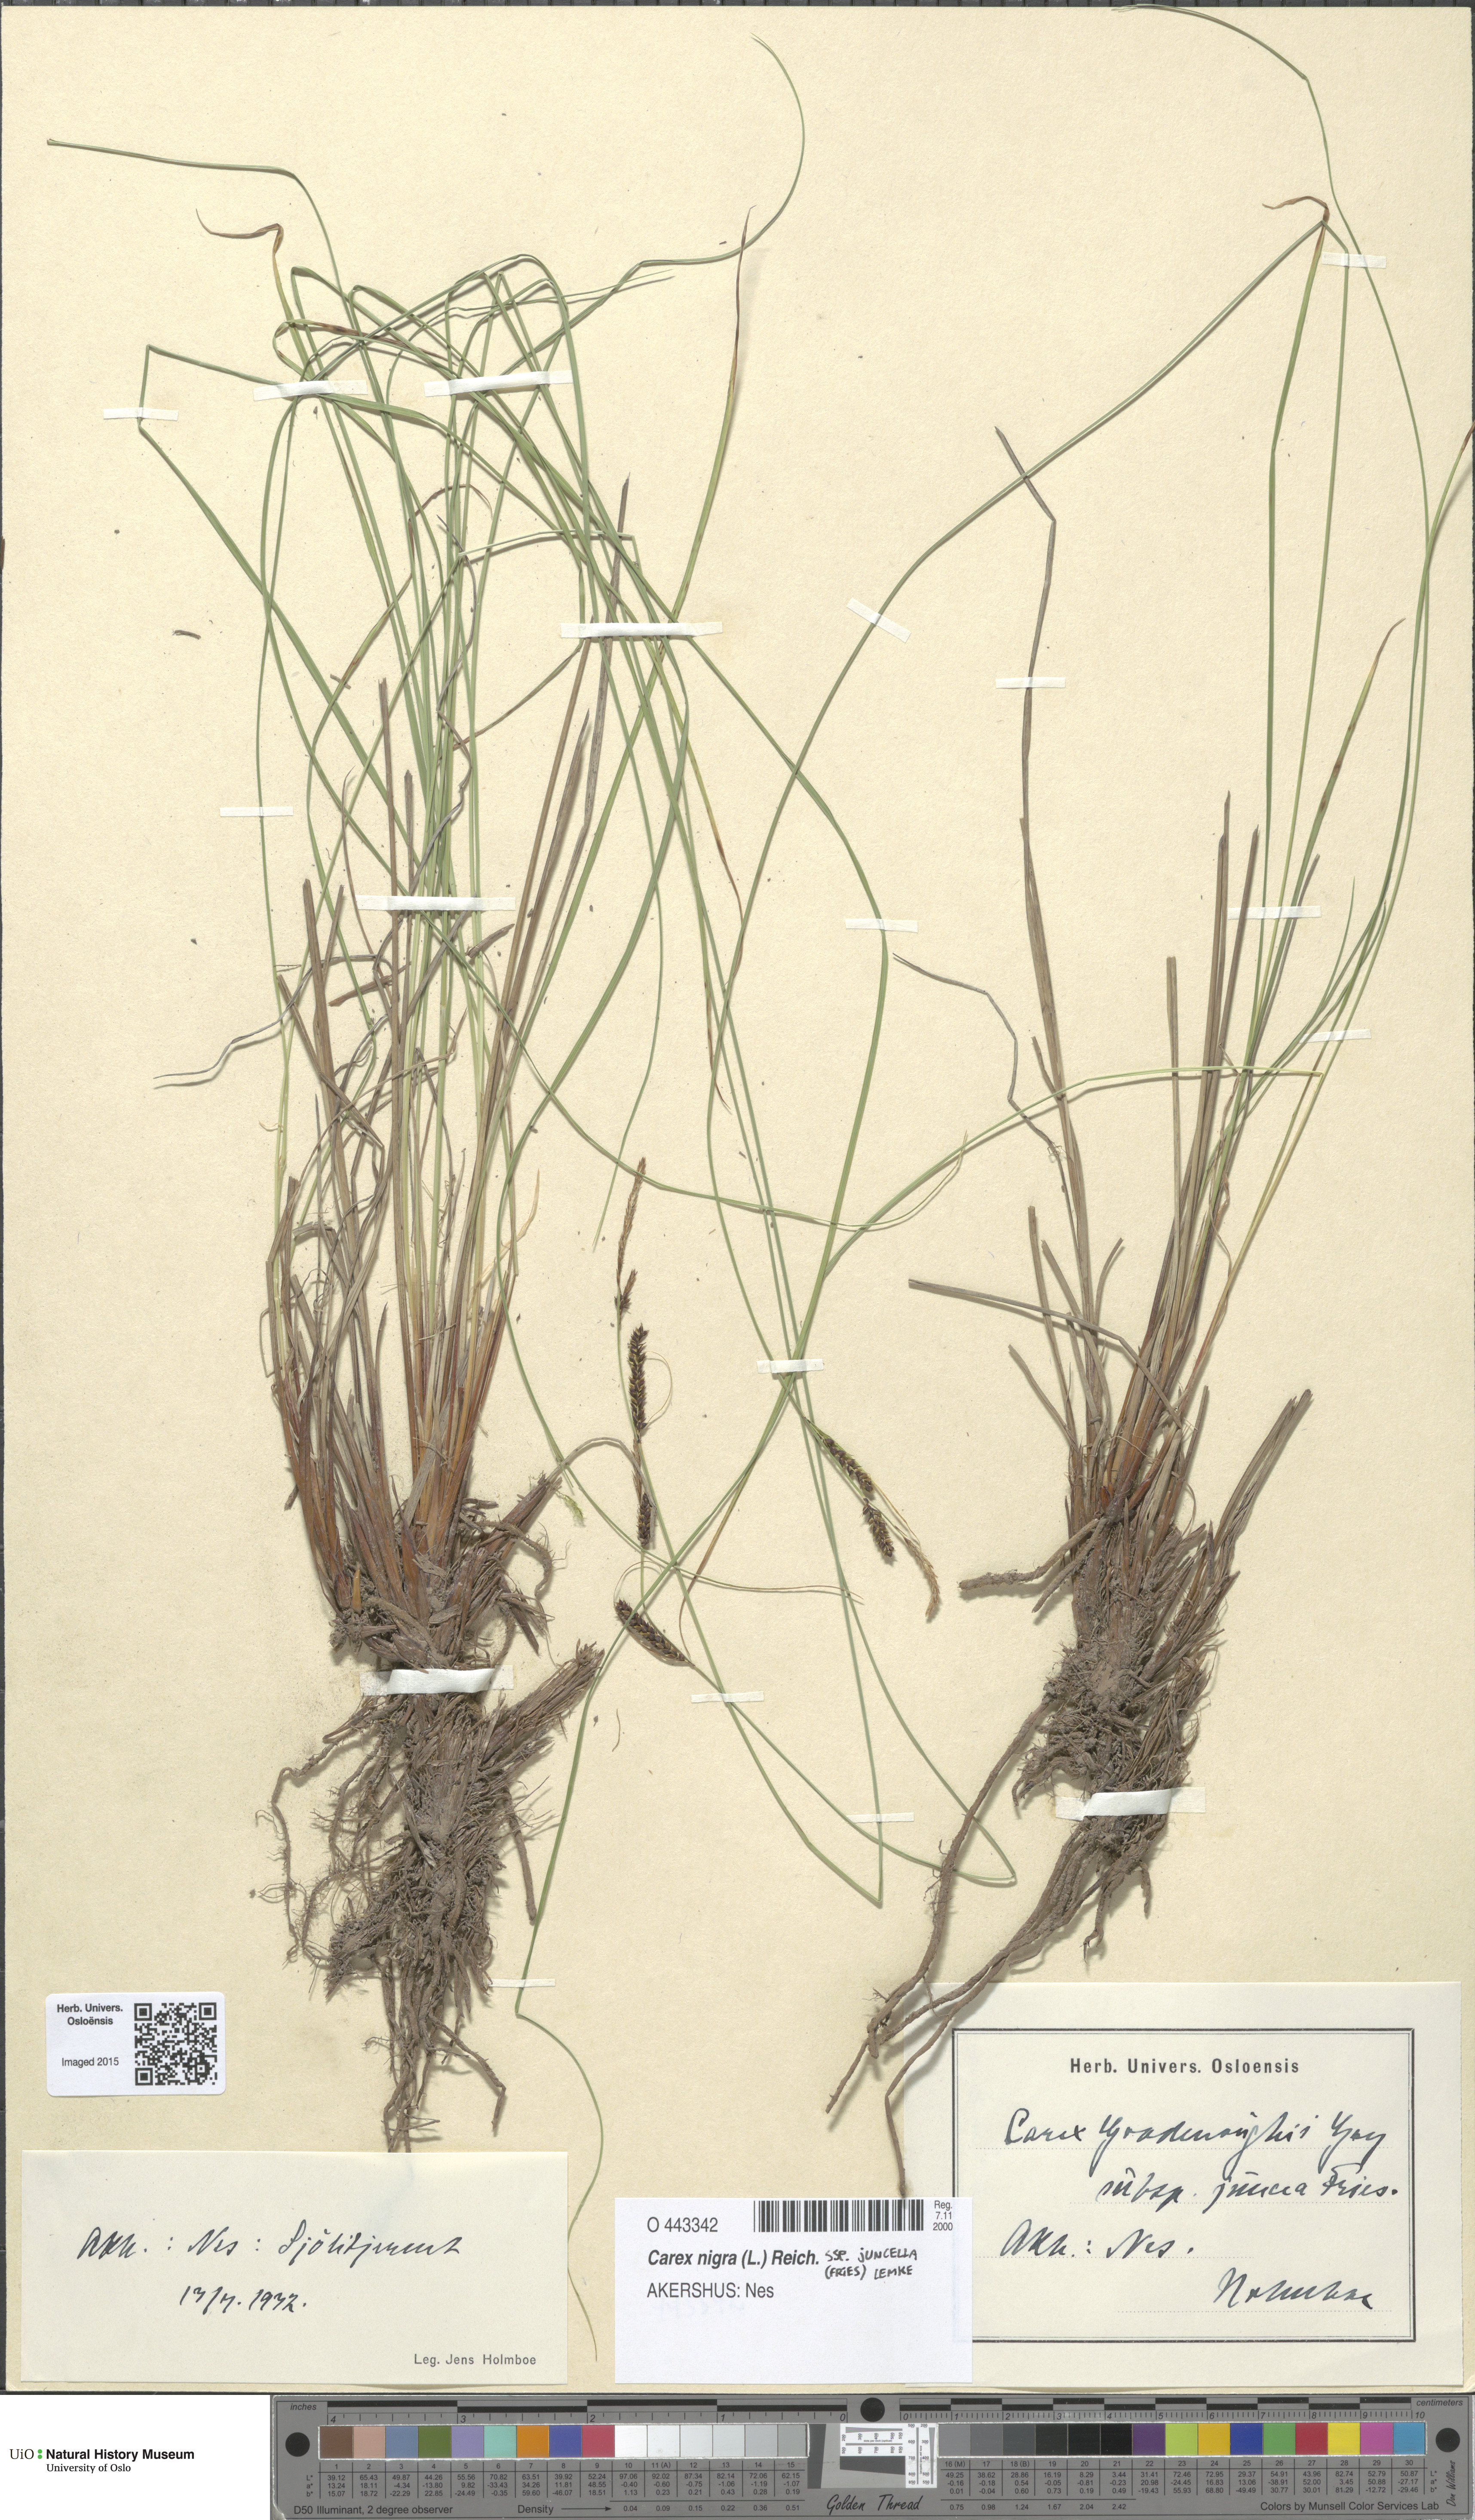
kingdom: Plantae
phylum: Tracheophyta
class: Liliopsida
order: Poales
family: Cyperaceae
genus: Carex
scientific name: Carex nigra
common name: Common sedge
